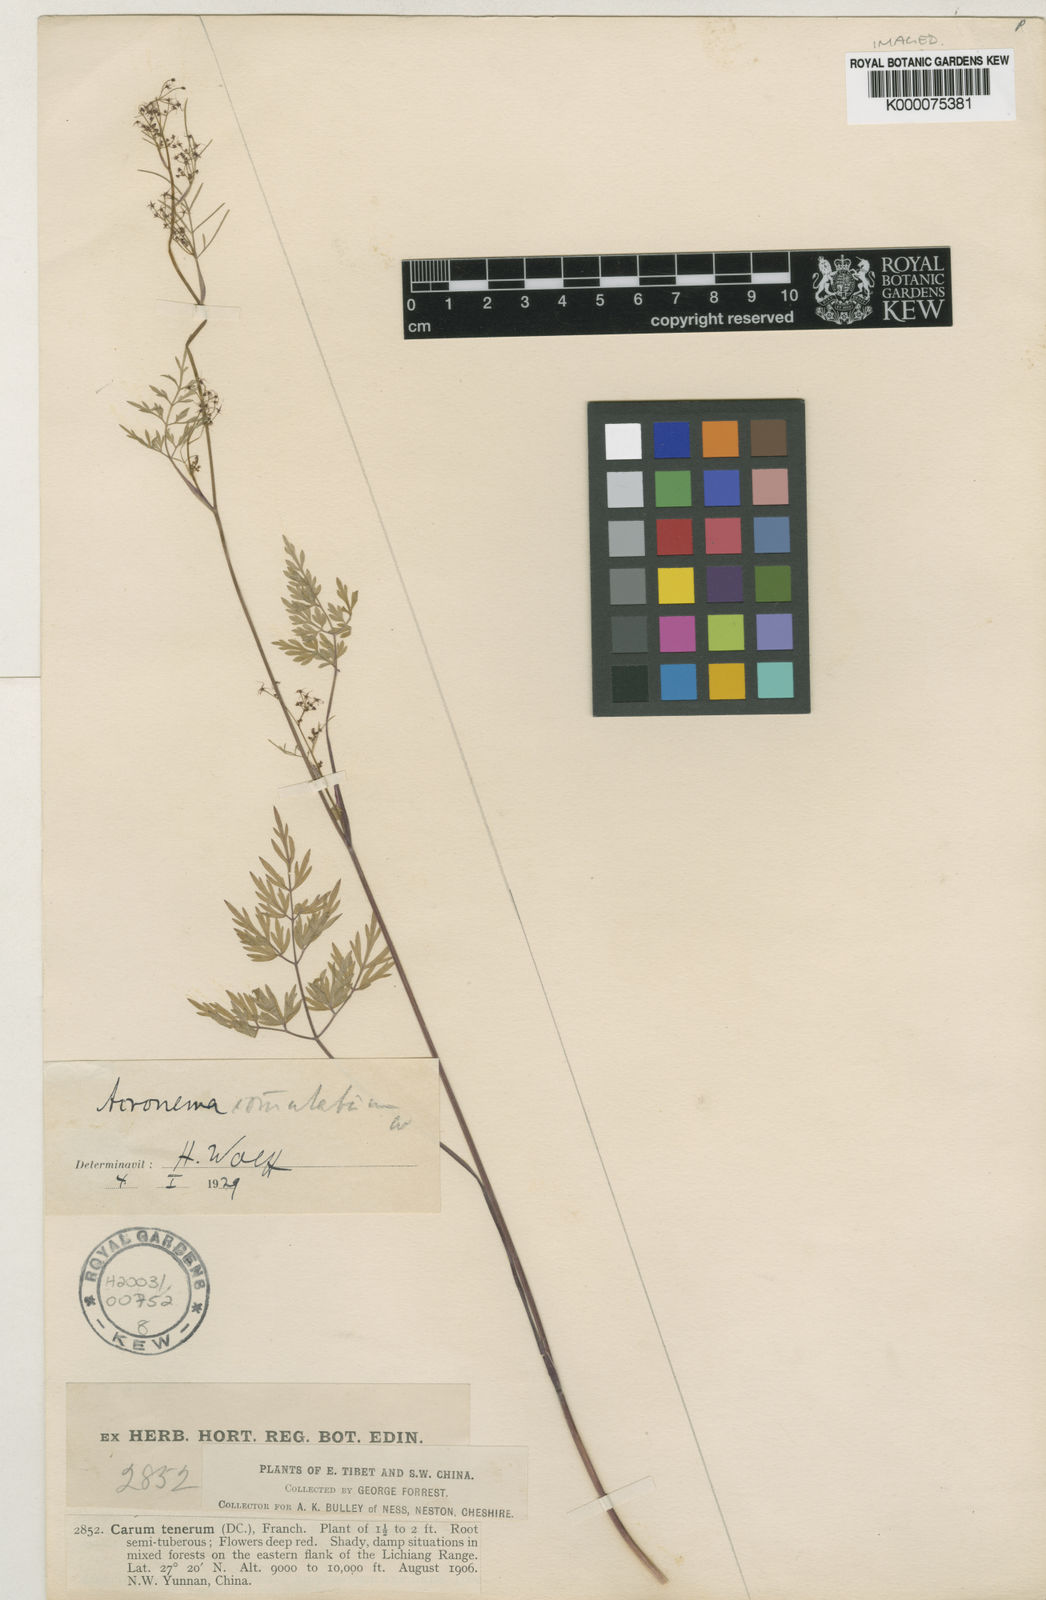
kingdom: Plantae
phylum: Tracheophyta
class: Magnoliopsida
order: Apiales
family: Apiaceae
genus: Acronema
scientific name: Acronema commutatum
